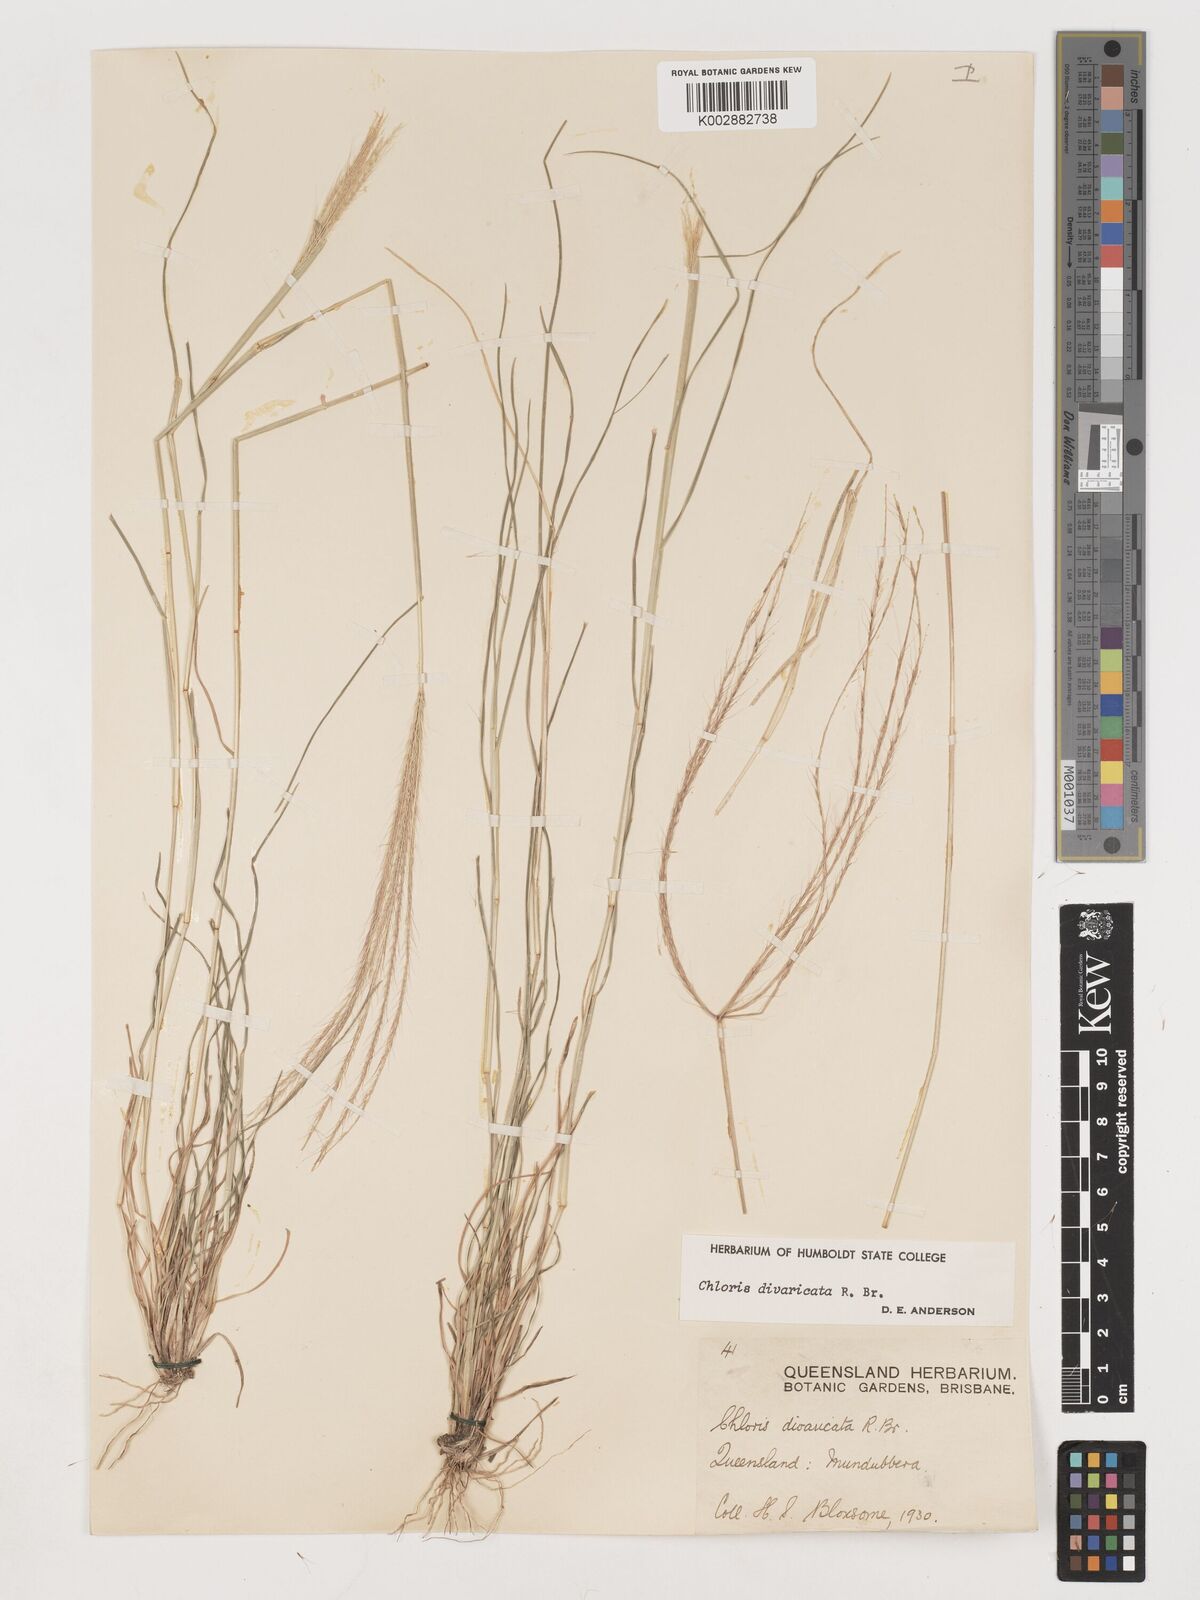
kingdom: Plantae
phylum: Tracheophyta
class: Liliopsida
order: Poales
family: Poaceae
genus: Chloris
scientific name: Chloris divaricata
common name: Spreading windmill grass
